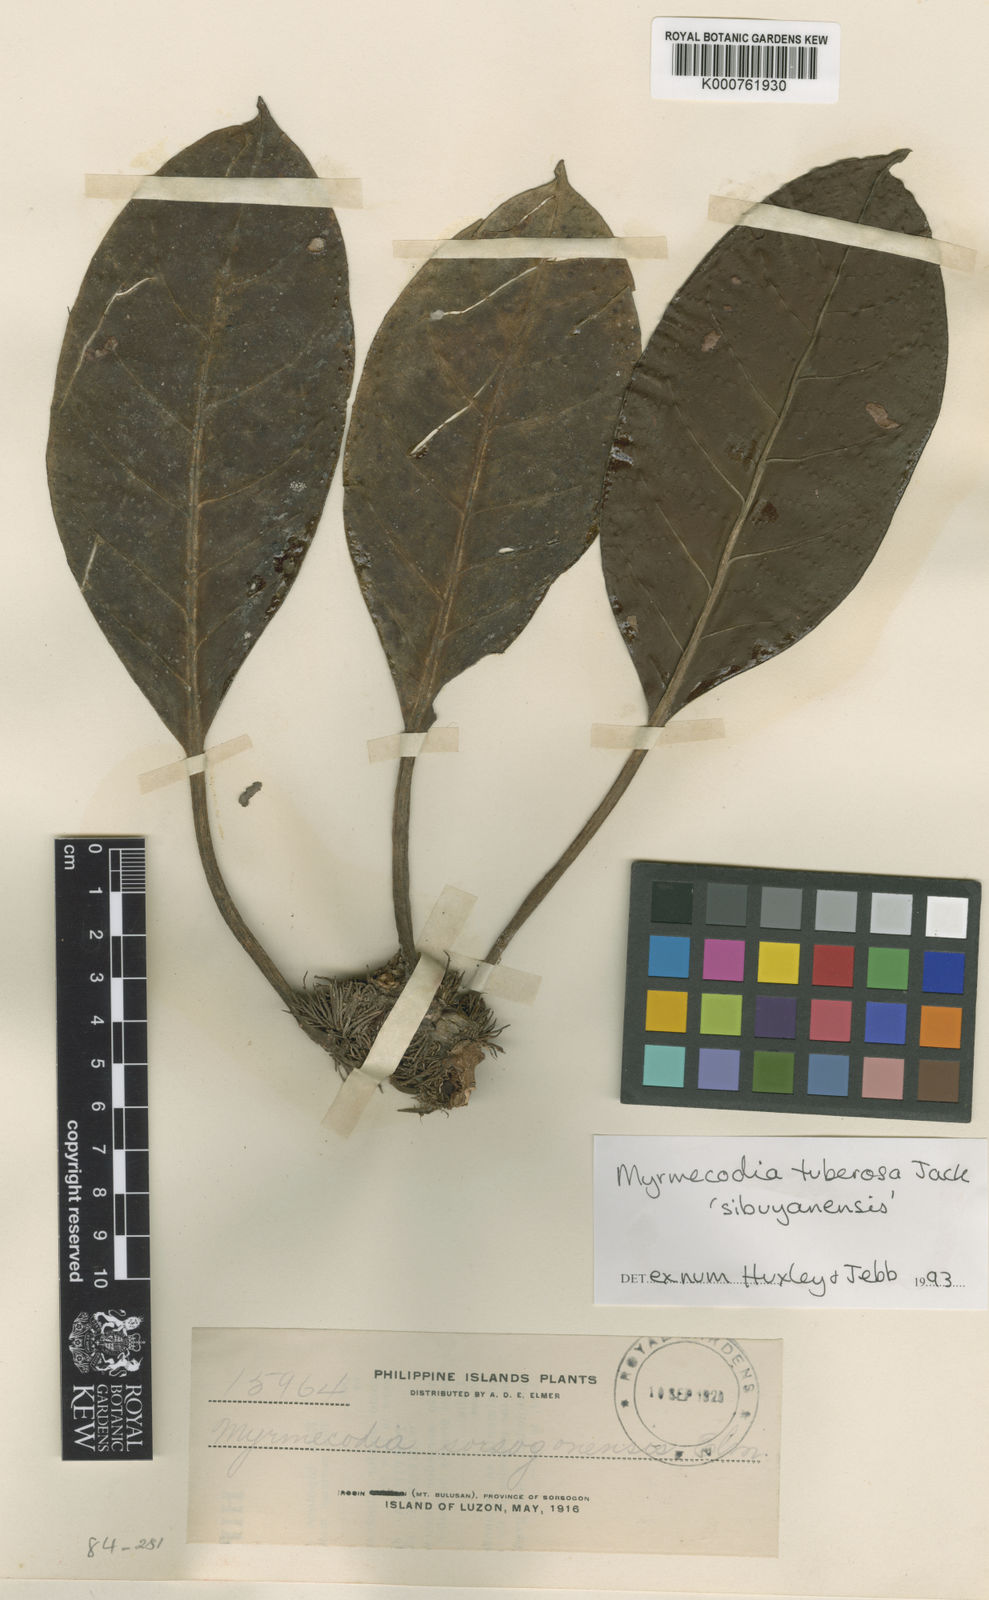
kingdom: Plantae
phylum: Tracheophyta
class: Magnoliopsida
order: Gentianales
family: Rubiaceae
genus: Myrmecodia
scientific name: Myrmecodia tuberosa
